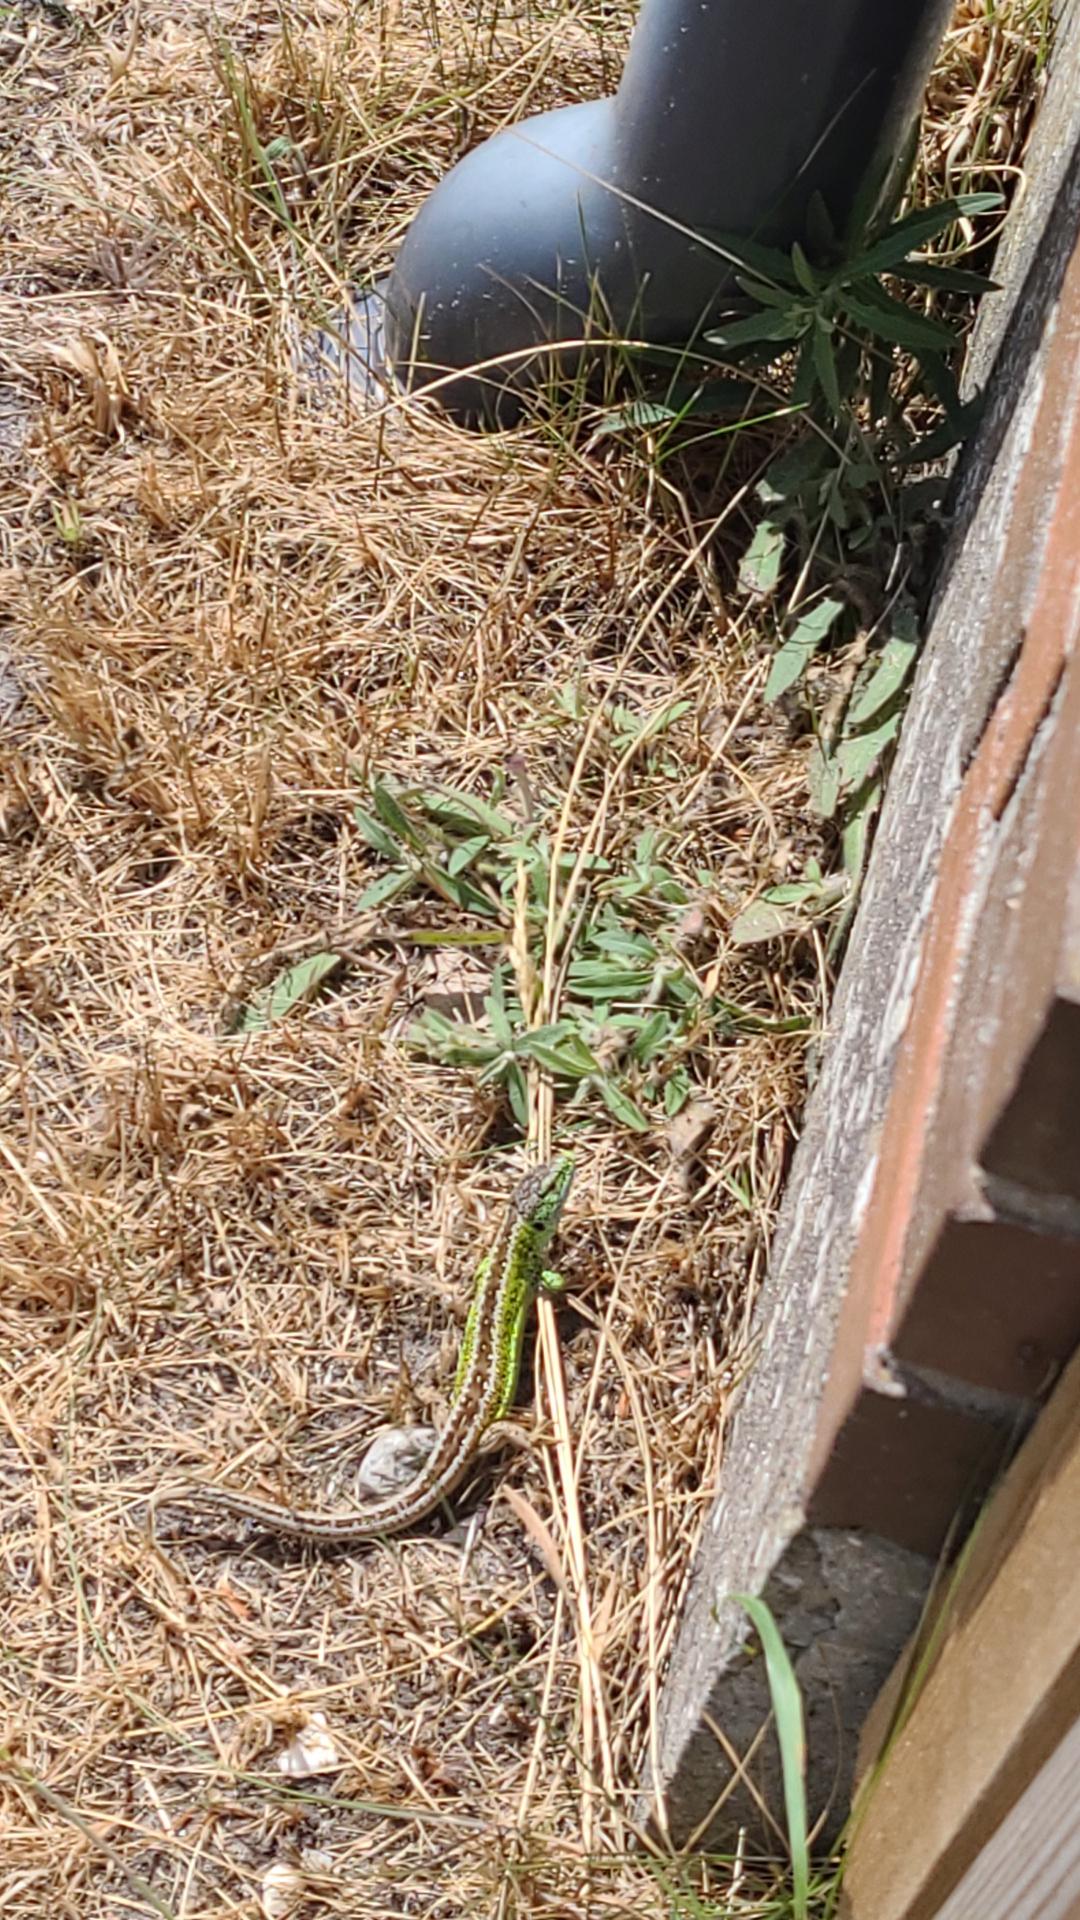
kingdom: Animalia
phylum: Chordata
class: Squamata
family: Lacertidae
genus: Lacerta
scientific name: Lacerta agilis
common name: Markfirben
